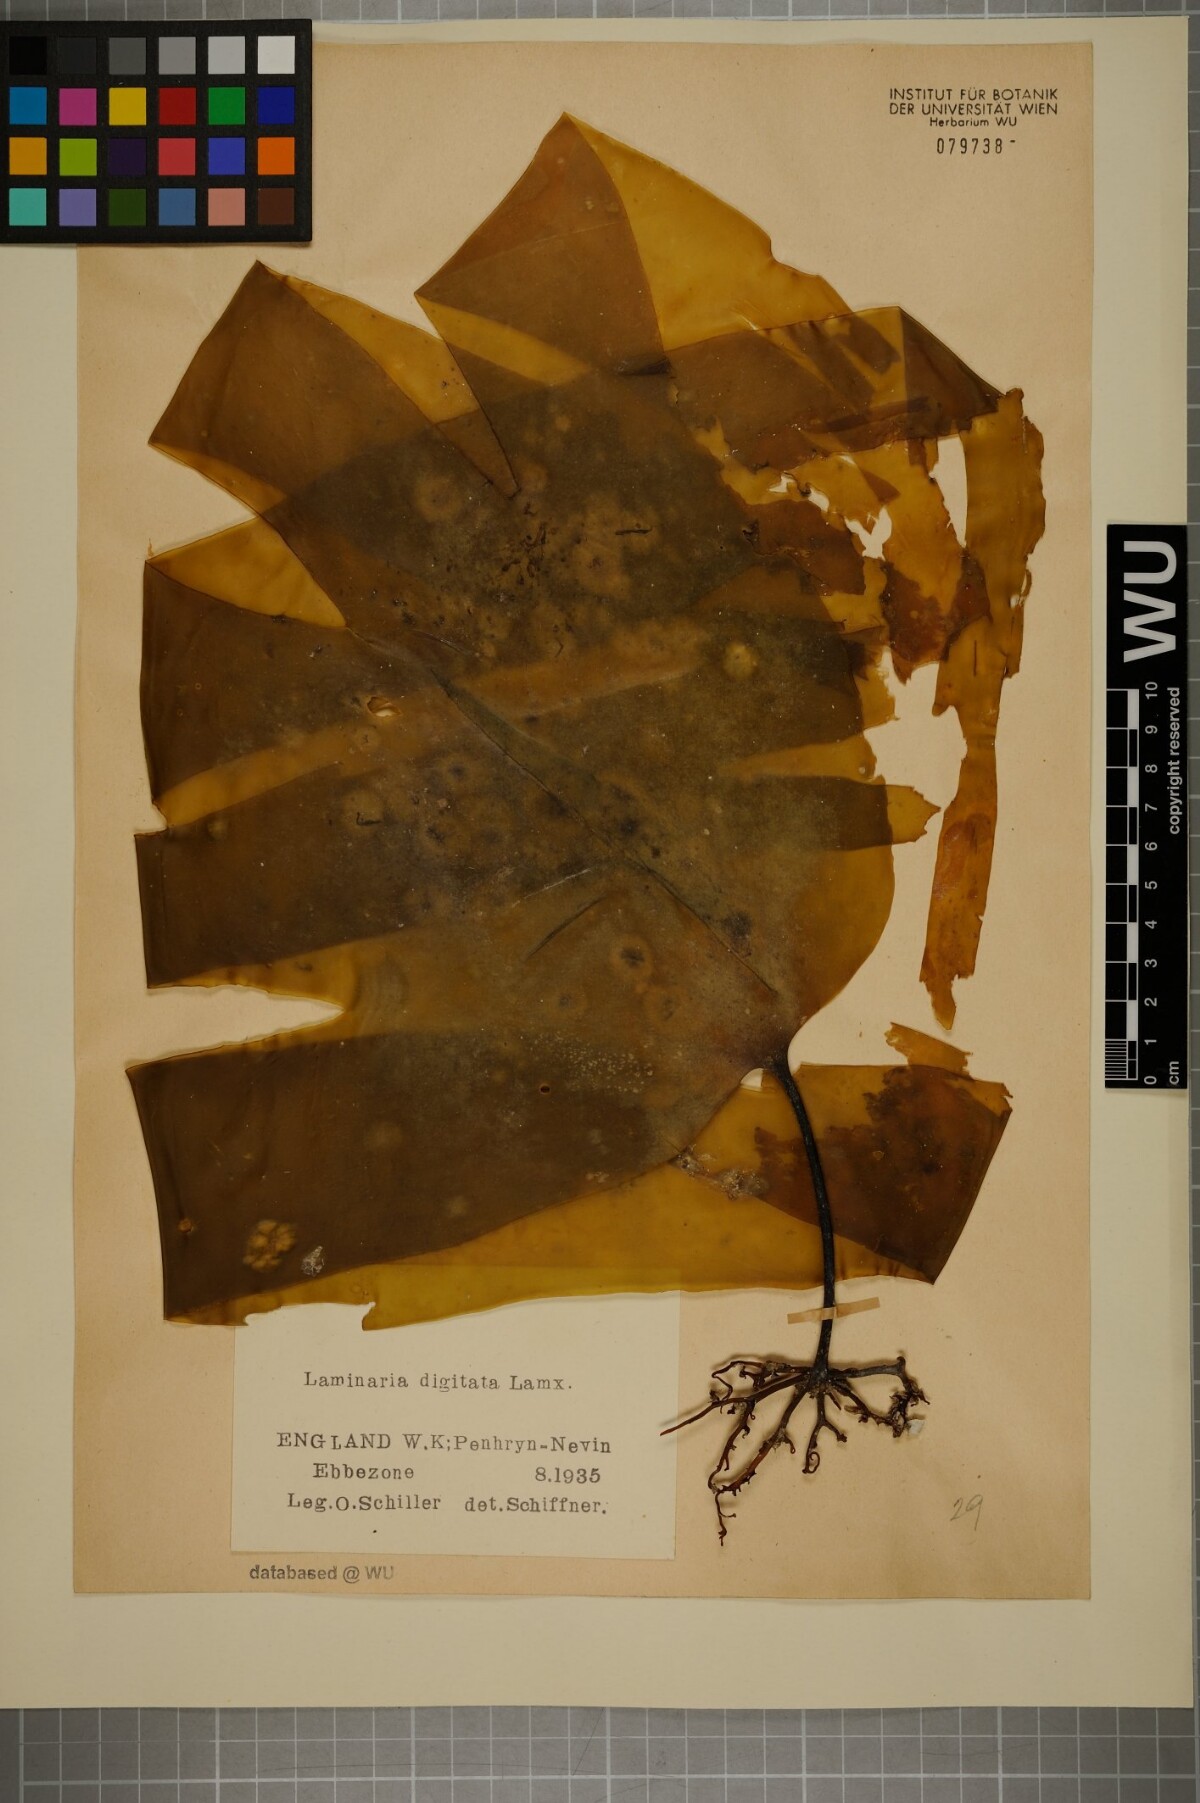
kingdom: Chromista
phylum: Ochrophyta
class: Phaeophyceae
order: Laminariales
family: Laminariaceae
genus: Laminaria
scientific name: Laminaria digitata
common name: Oarweed
